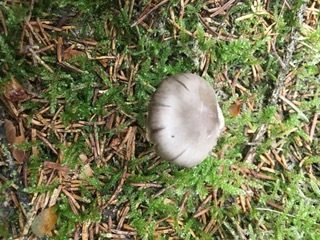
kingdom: Fungi
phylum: Basidiomycota
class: Agaricomycetes
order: Agaricales
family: Entolomataceae
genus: Entocybe
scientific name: Entocybe turbida
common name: plantage-rødblad
